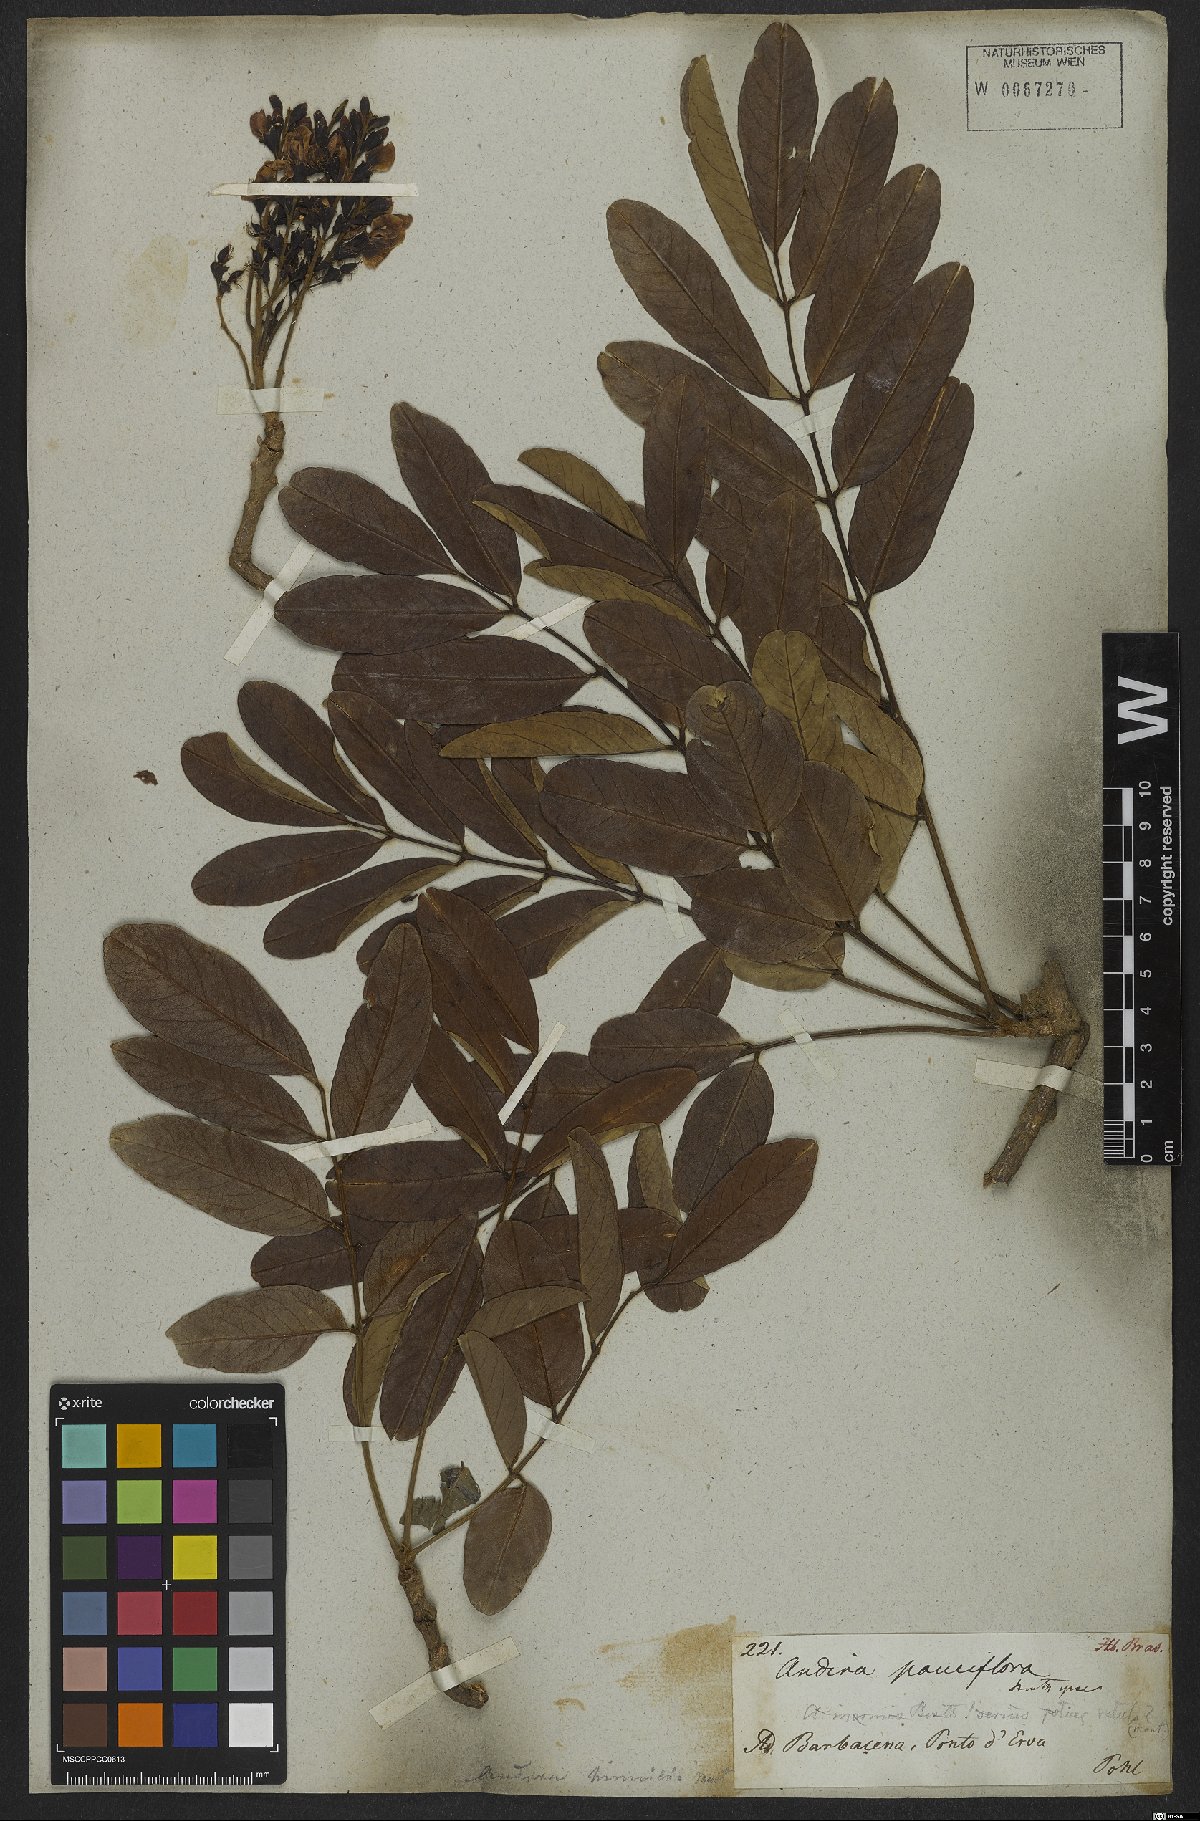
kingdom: Plantae
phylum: Tracheophyta
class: Magnoliopsida
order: Fabales
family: Fabaceae
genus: Andira
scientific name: Andira surinamensis
